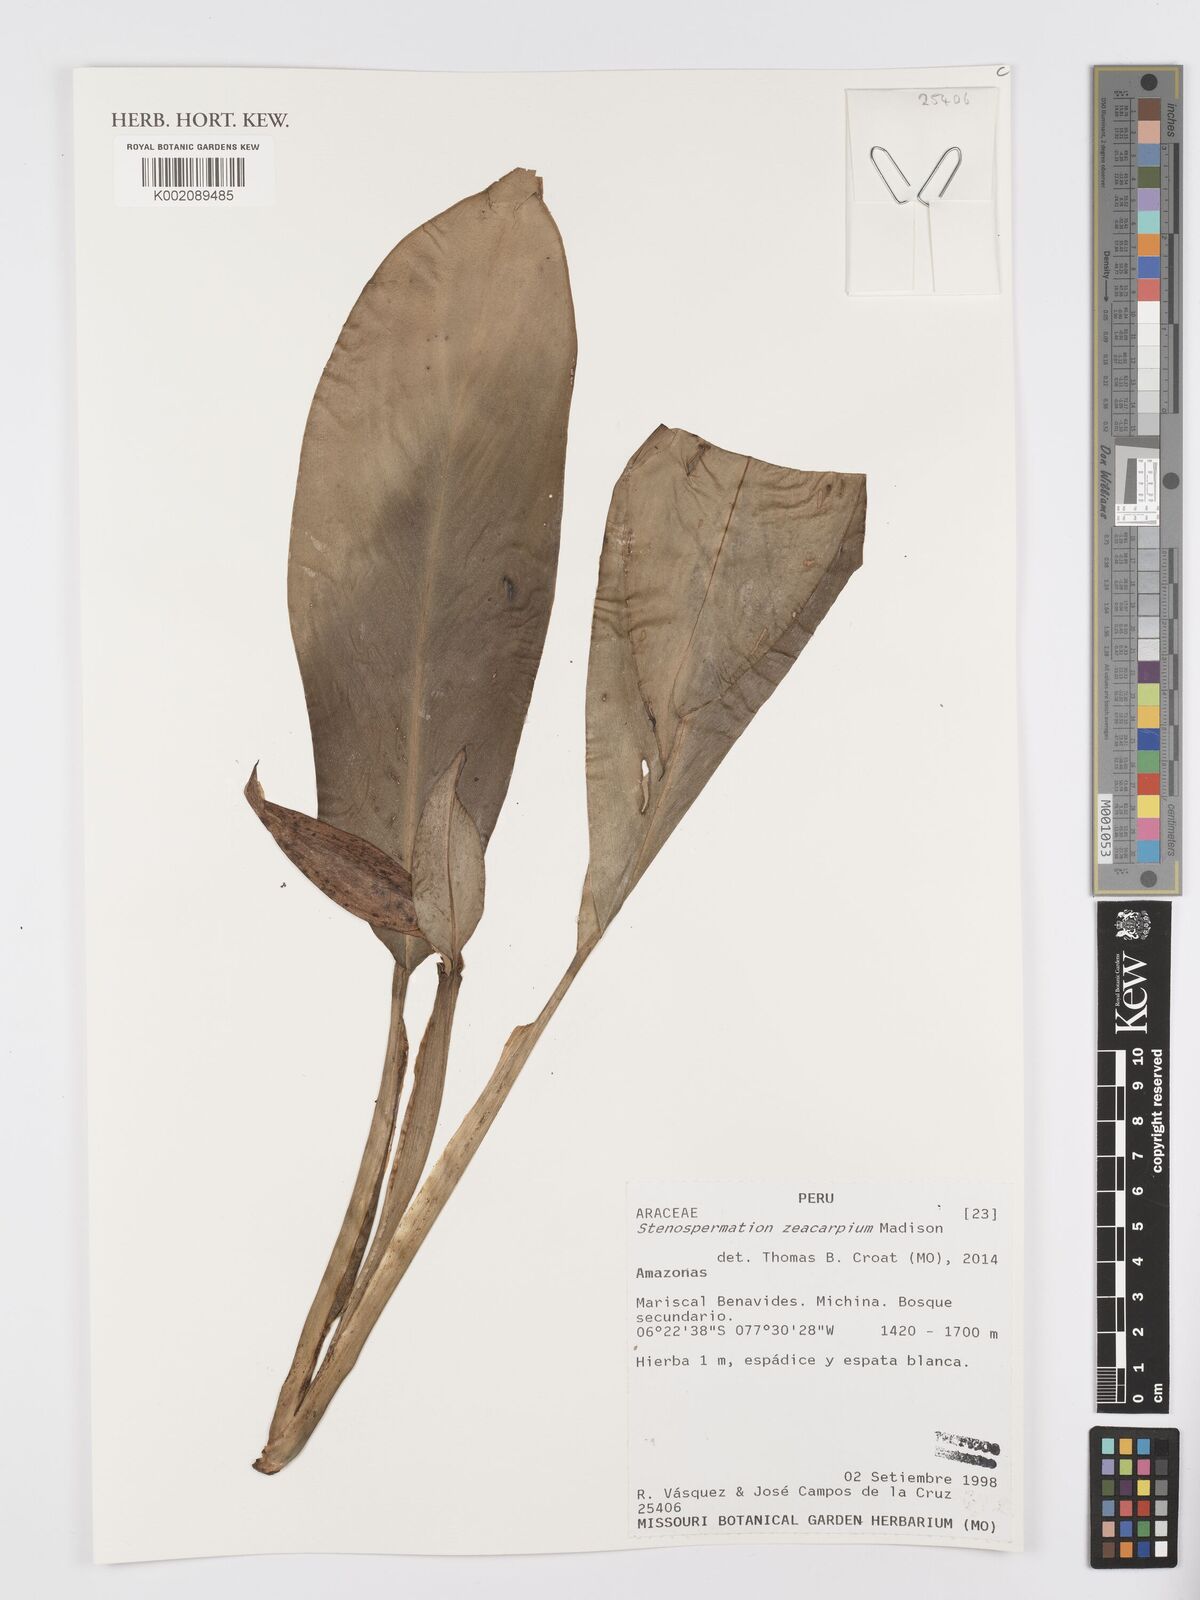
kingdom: Plantae
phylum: Tracheophyta
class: Liliopsida
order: Alismatales
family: Araceae
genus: Stenospermation
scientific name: Stenospermation zeacarpium
